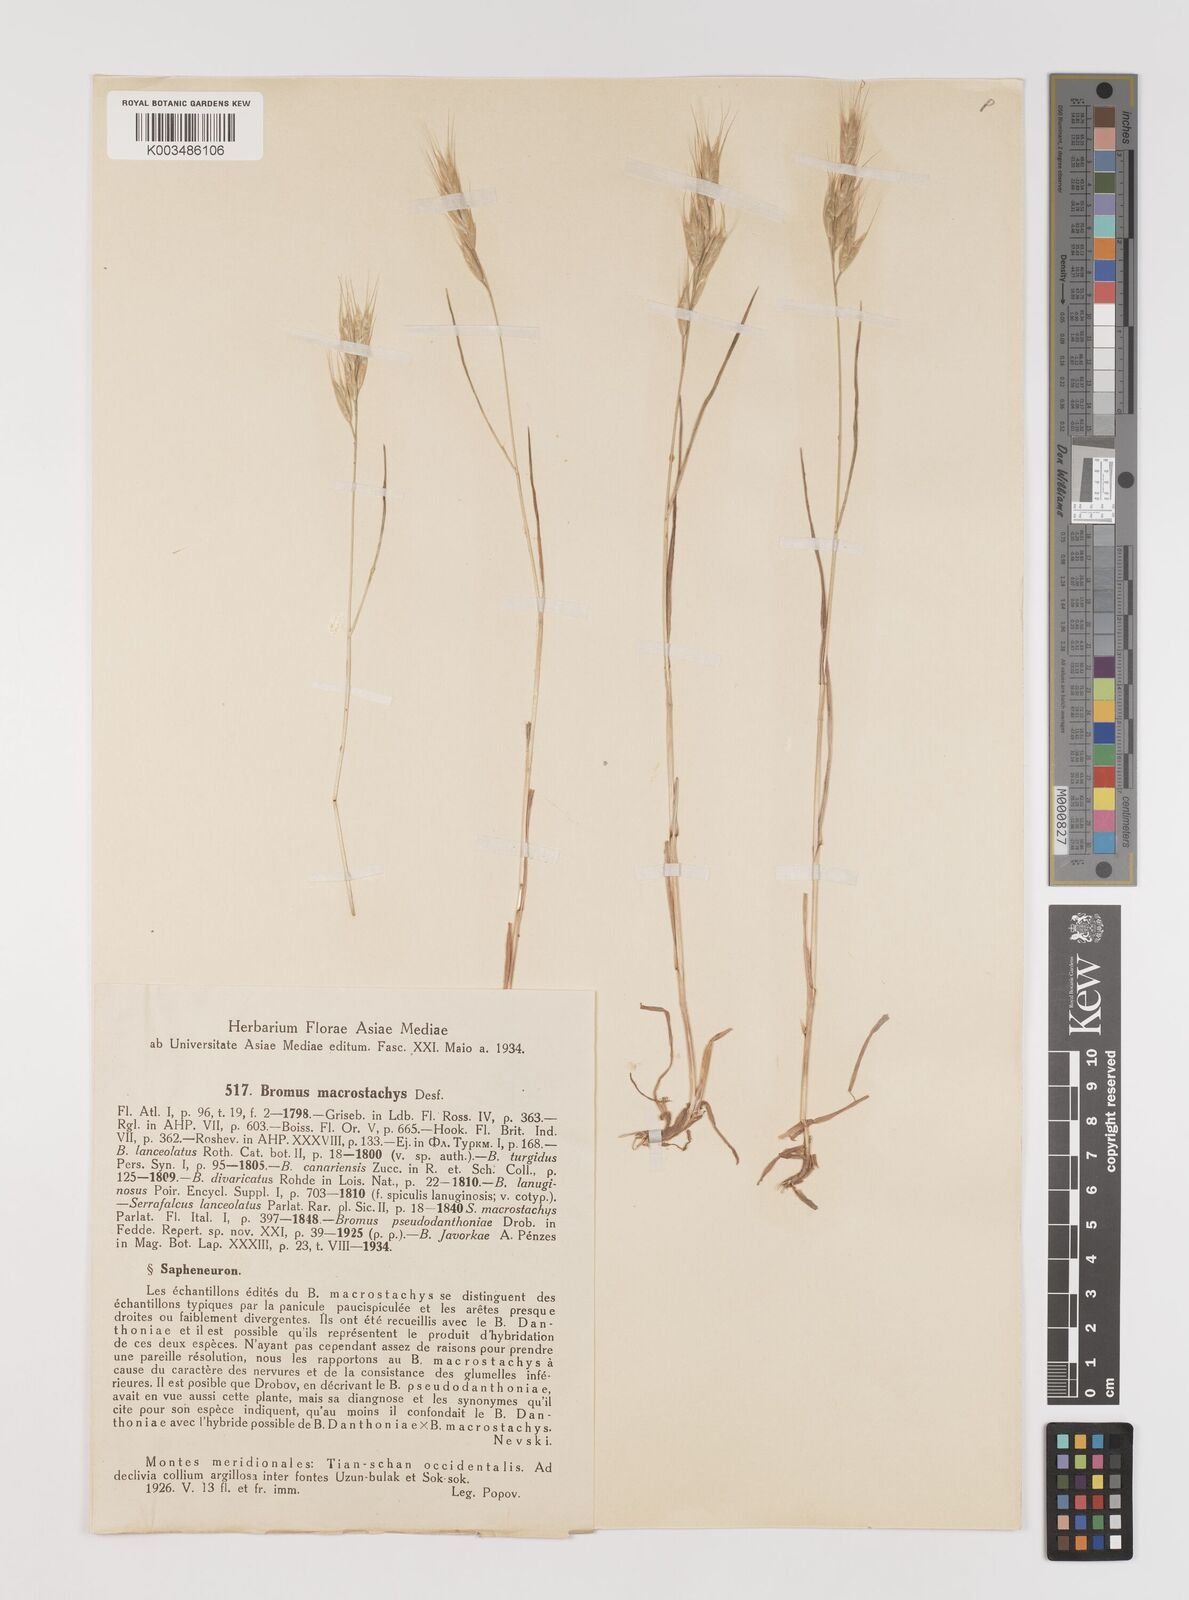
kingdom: Plantae
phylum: Tracheophyta
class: Liliopsida
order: Poales
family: Poaceae
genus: Bromus
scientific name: Bromus racemosus
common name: Bald brome
